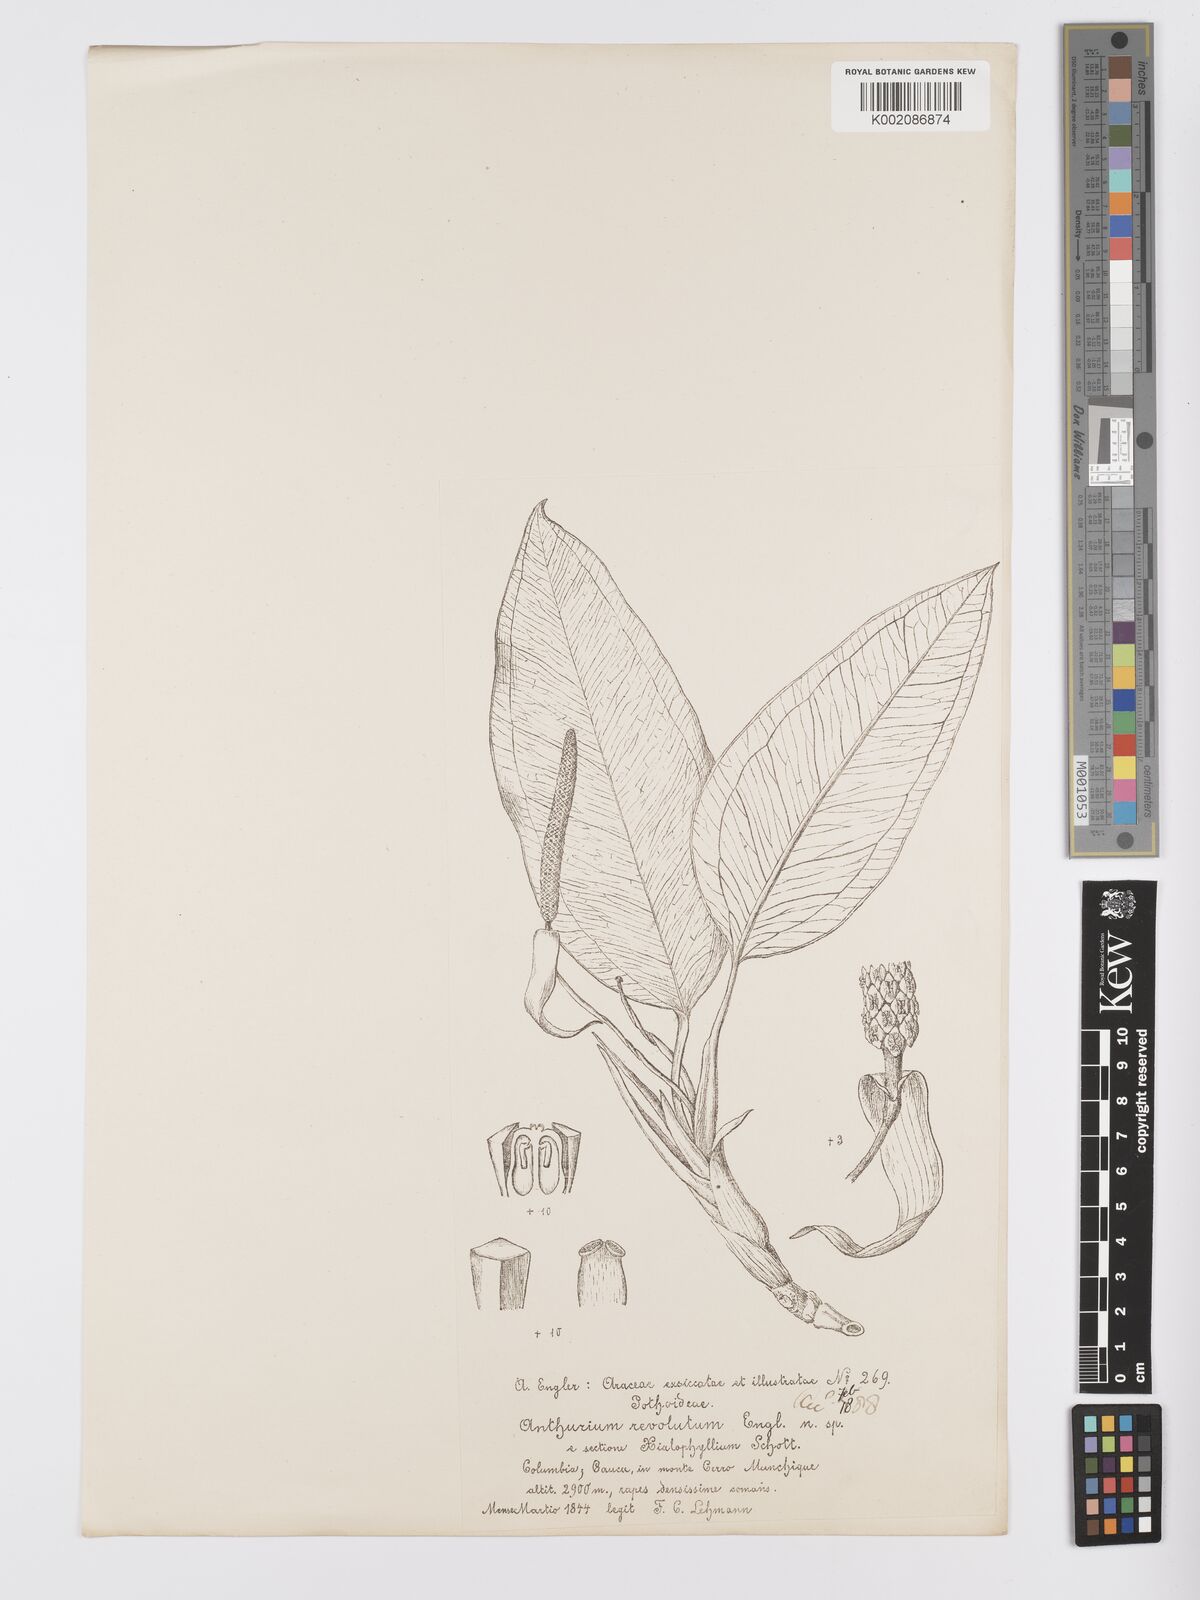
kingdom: Plantae
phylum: Tracheophyta
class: Liliopsida
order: Alismatales
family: Araceae
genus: Anthurium
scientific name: Anthurium purdieanum
